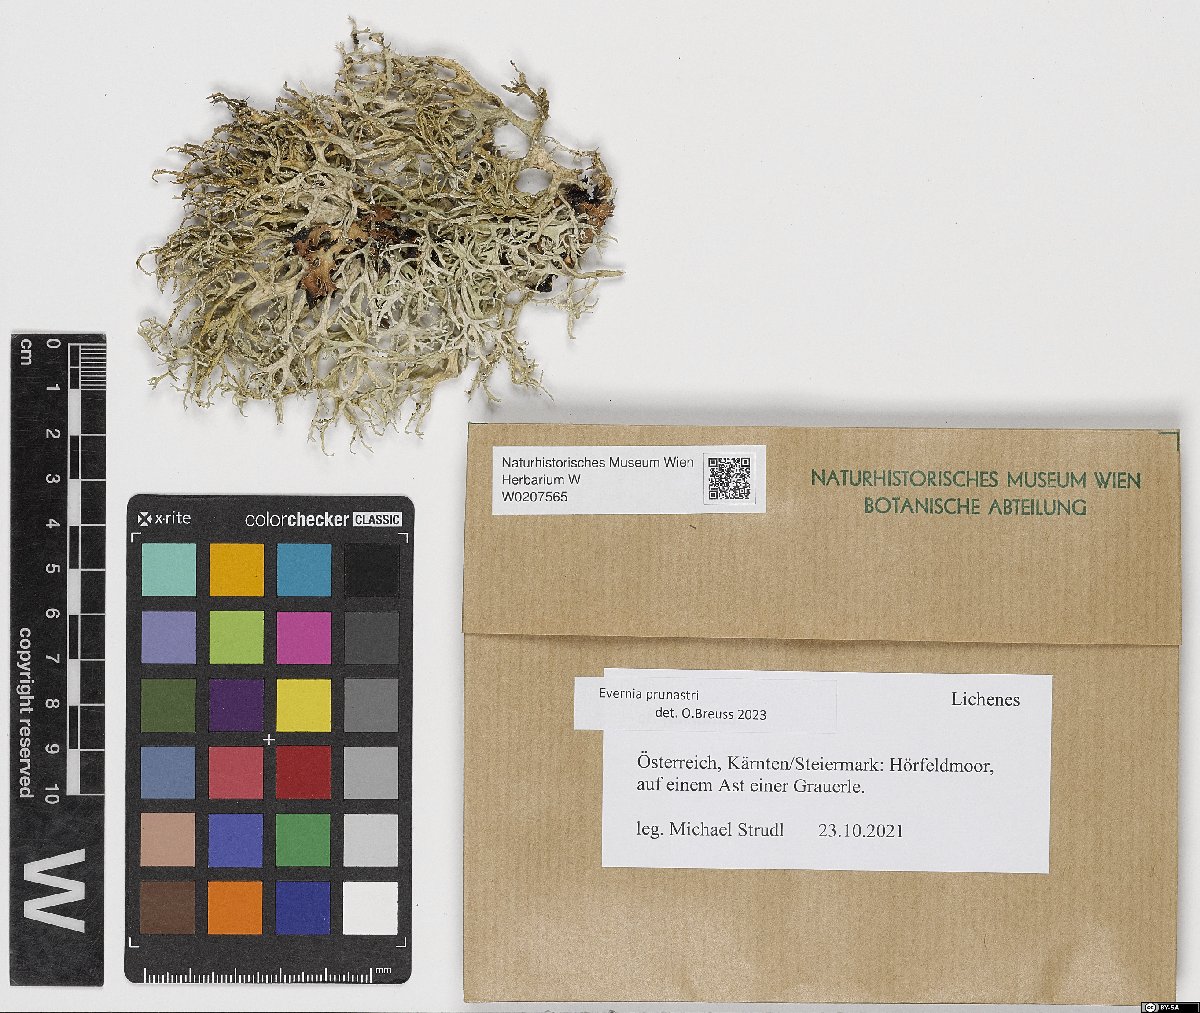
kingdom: Fungi
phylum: Ascomycota
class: Lecanoromycetes
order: Lecanorales
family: Parmeliaceae
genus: Evernia
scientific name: Evernia prunastri
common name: Oak moss
